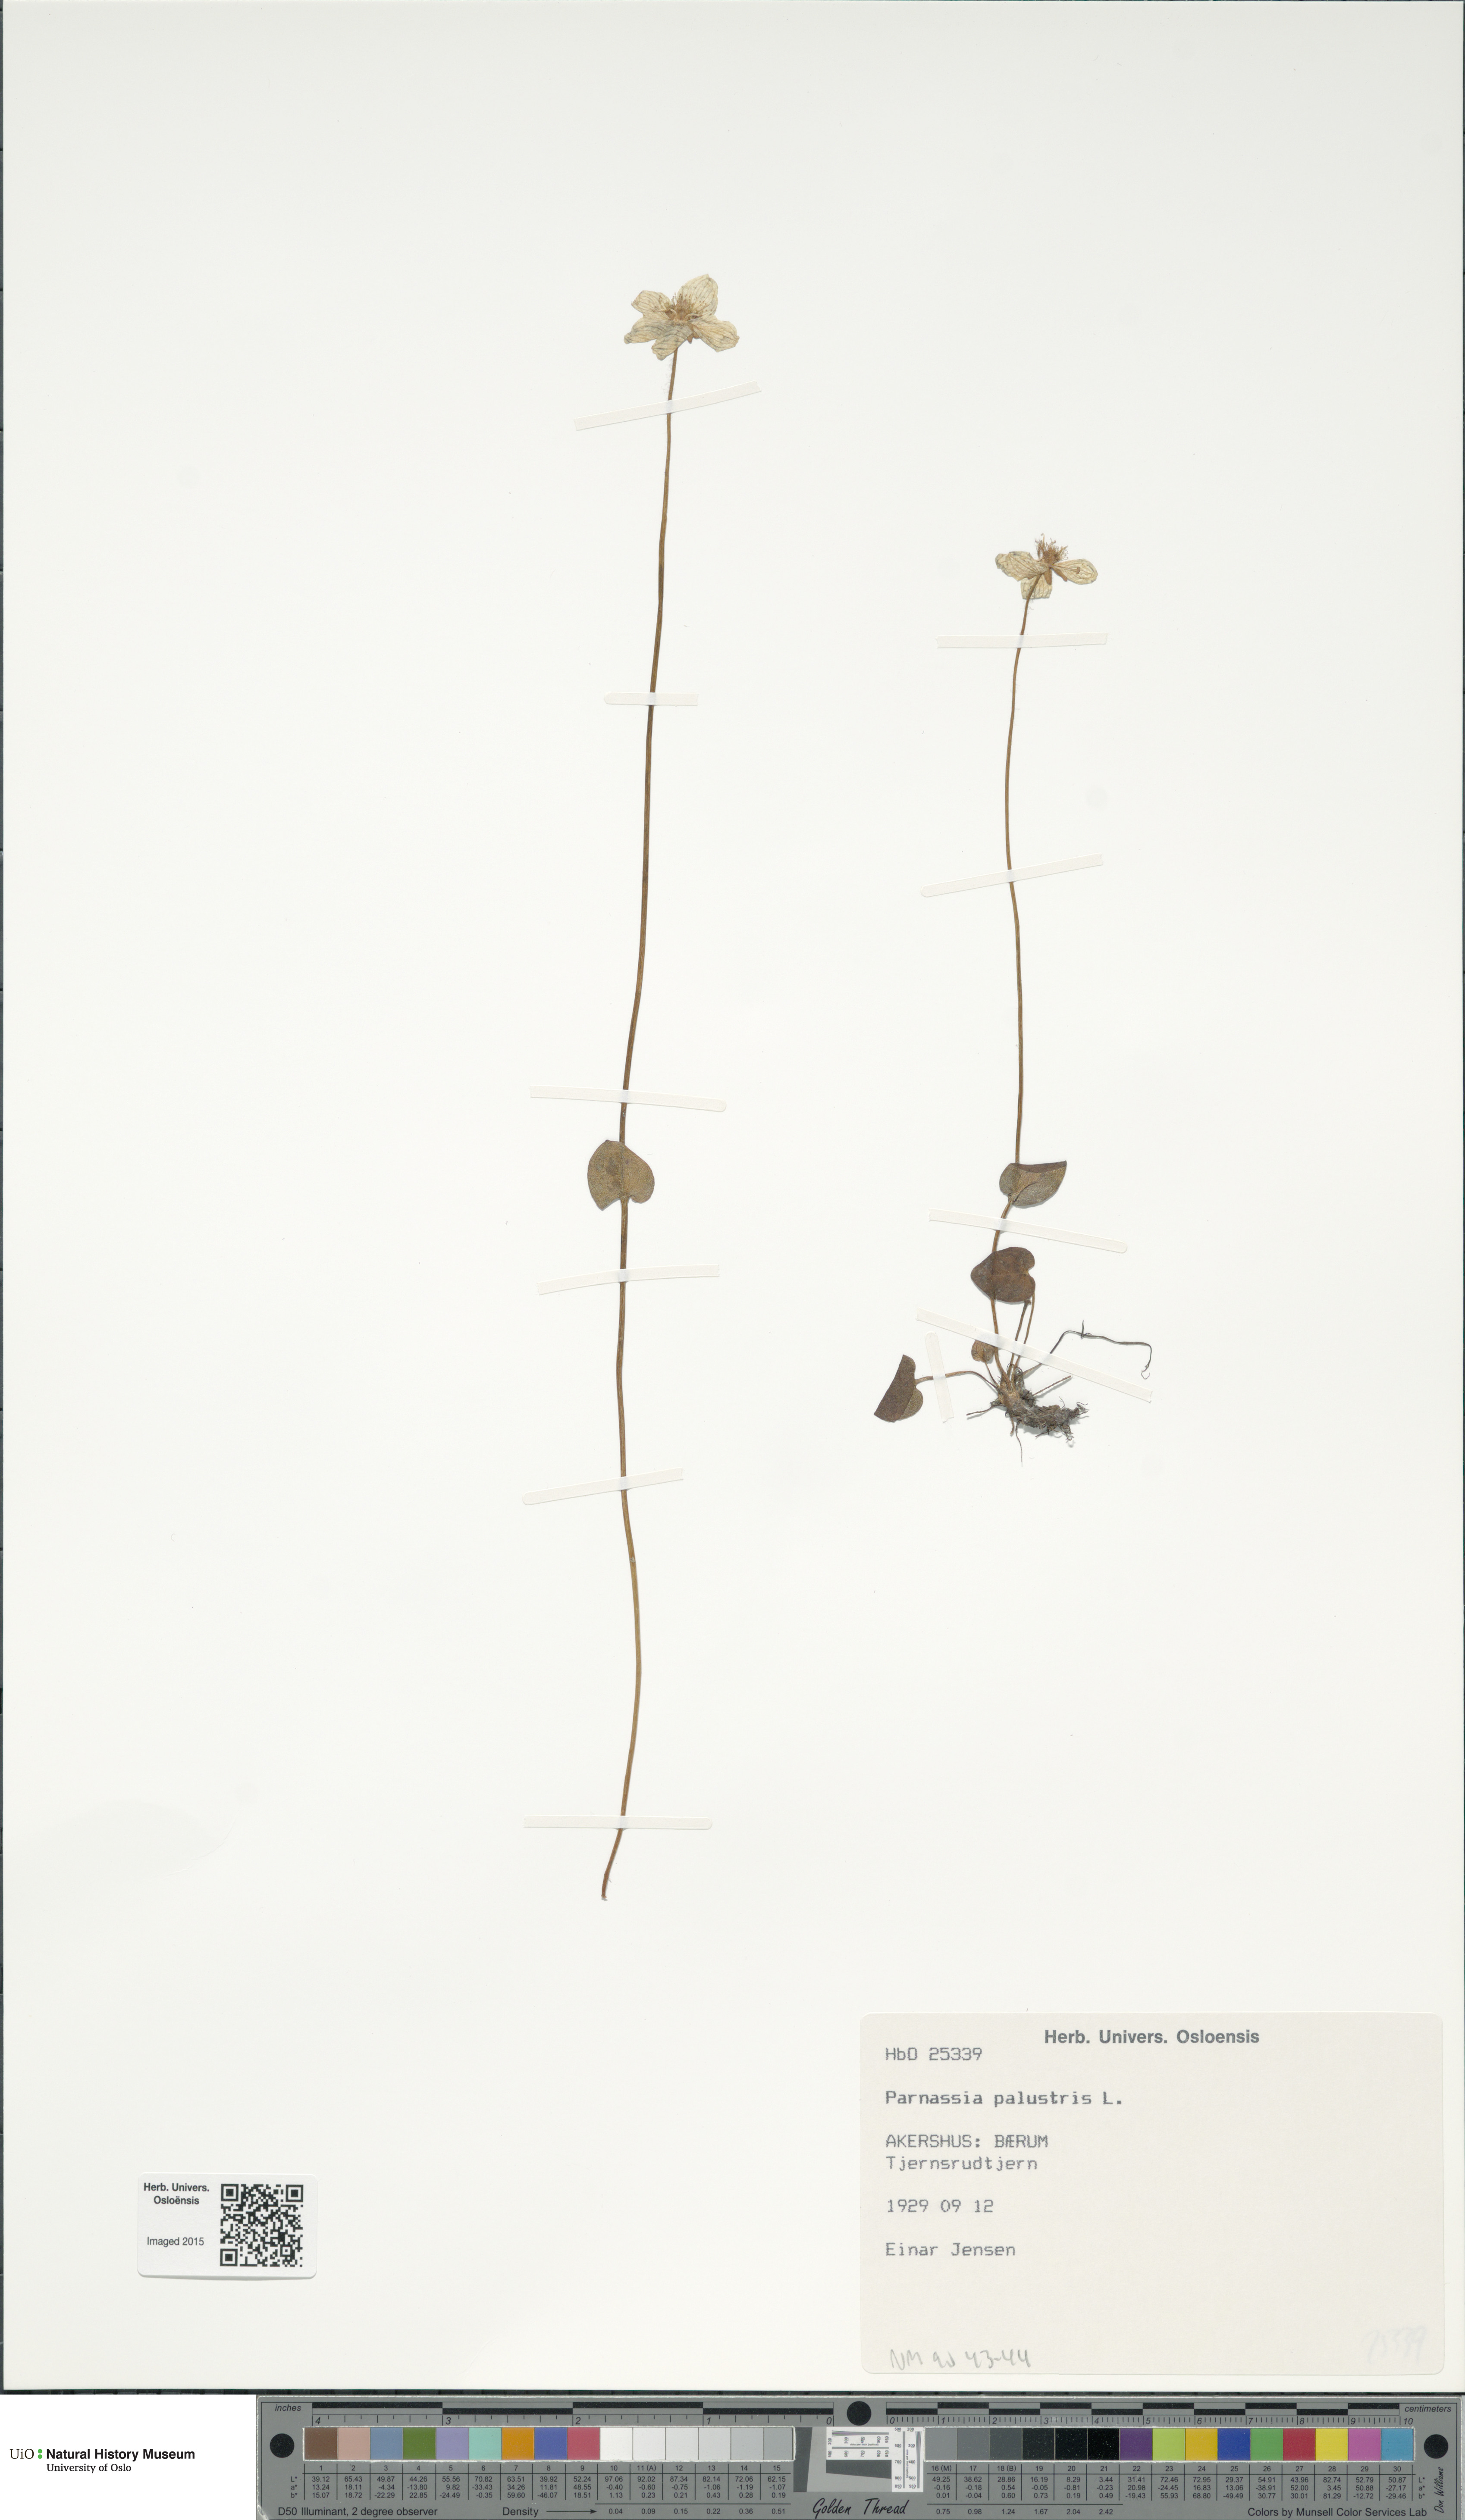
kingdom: Plantae
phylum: Tracheophyta
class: Magnoliopsida
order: Celastrales
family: Parnassiaceae
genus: Parnassia
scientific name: Parnassia palustris
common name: Grass-of-parnassus
